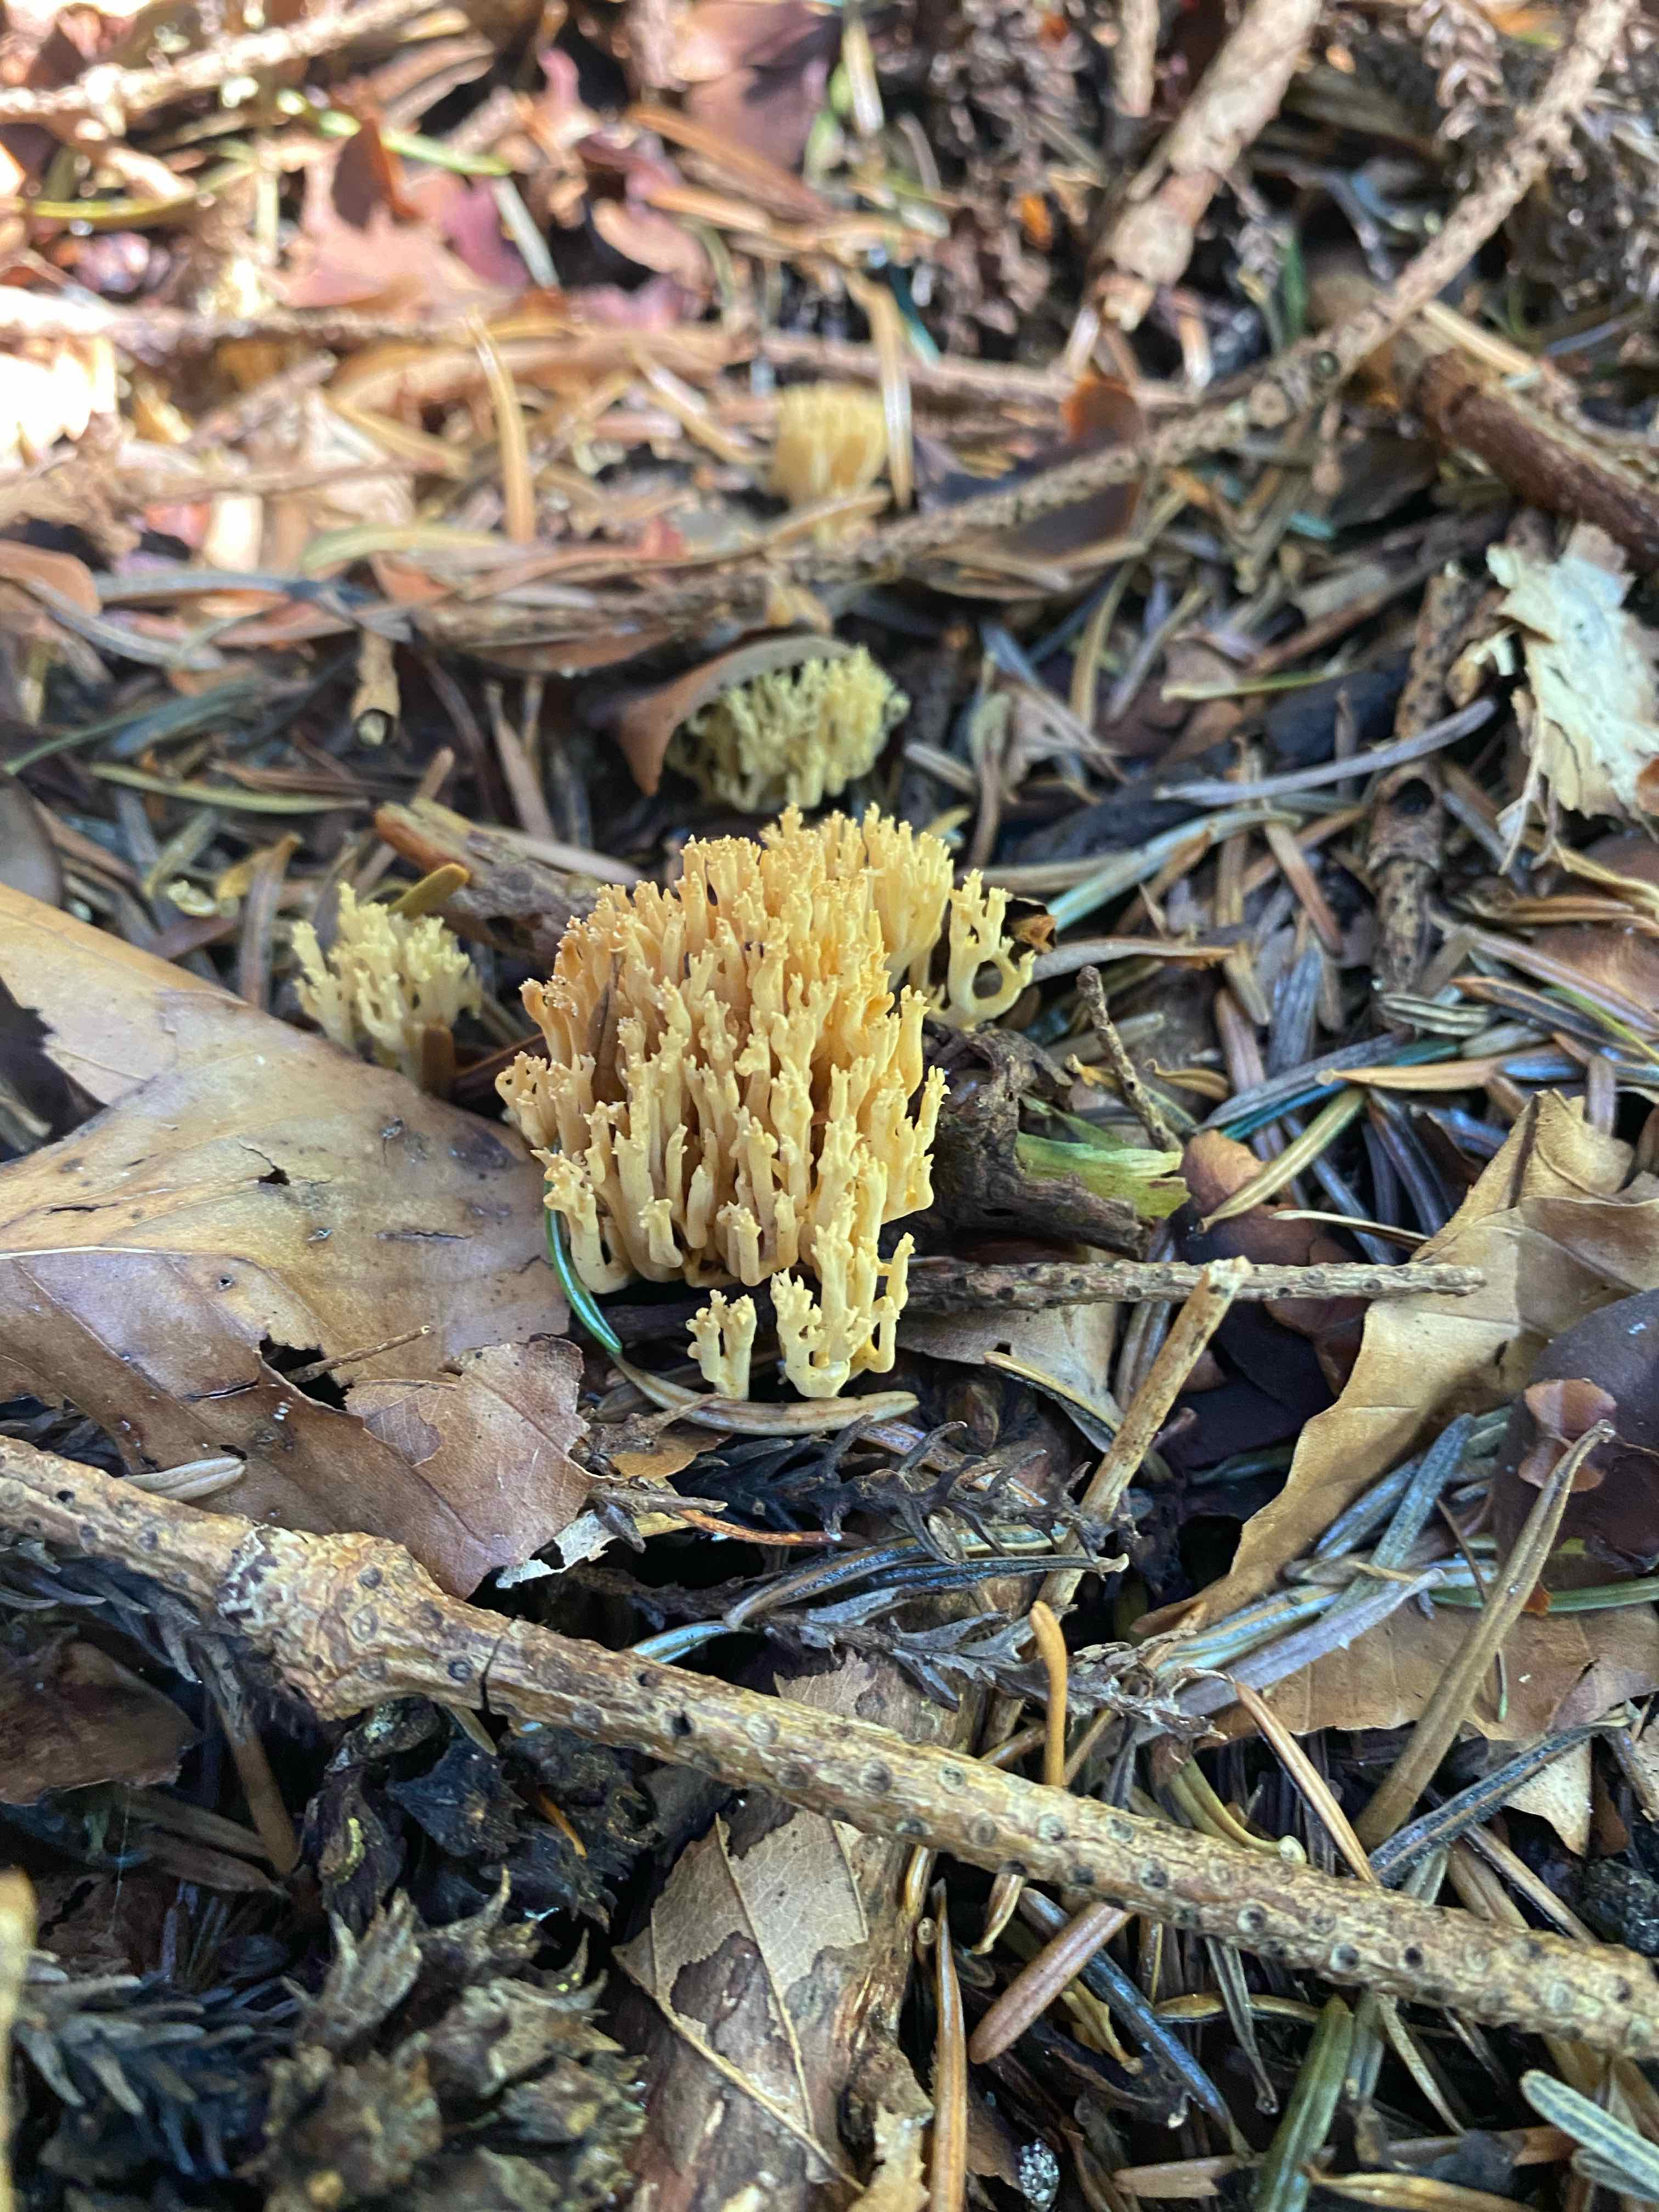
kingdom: Fungi
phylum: Basidiomycota
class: Agaricomycetes
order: Gomphales
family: Gomphaceae
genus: Phaeoclavulina
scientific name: Phaeoclavulina eumorpha
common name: gran-koralsvamp
